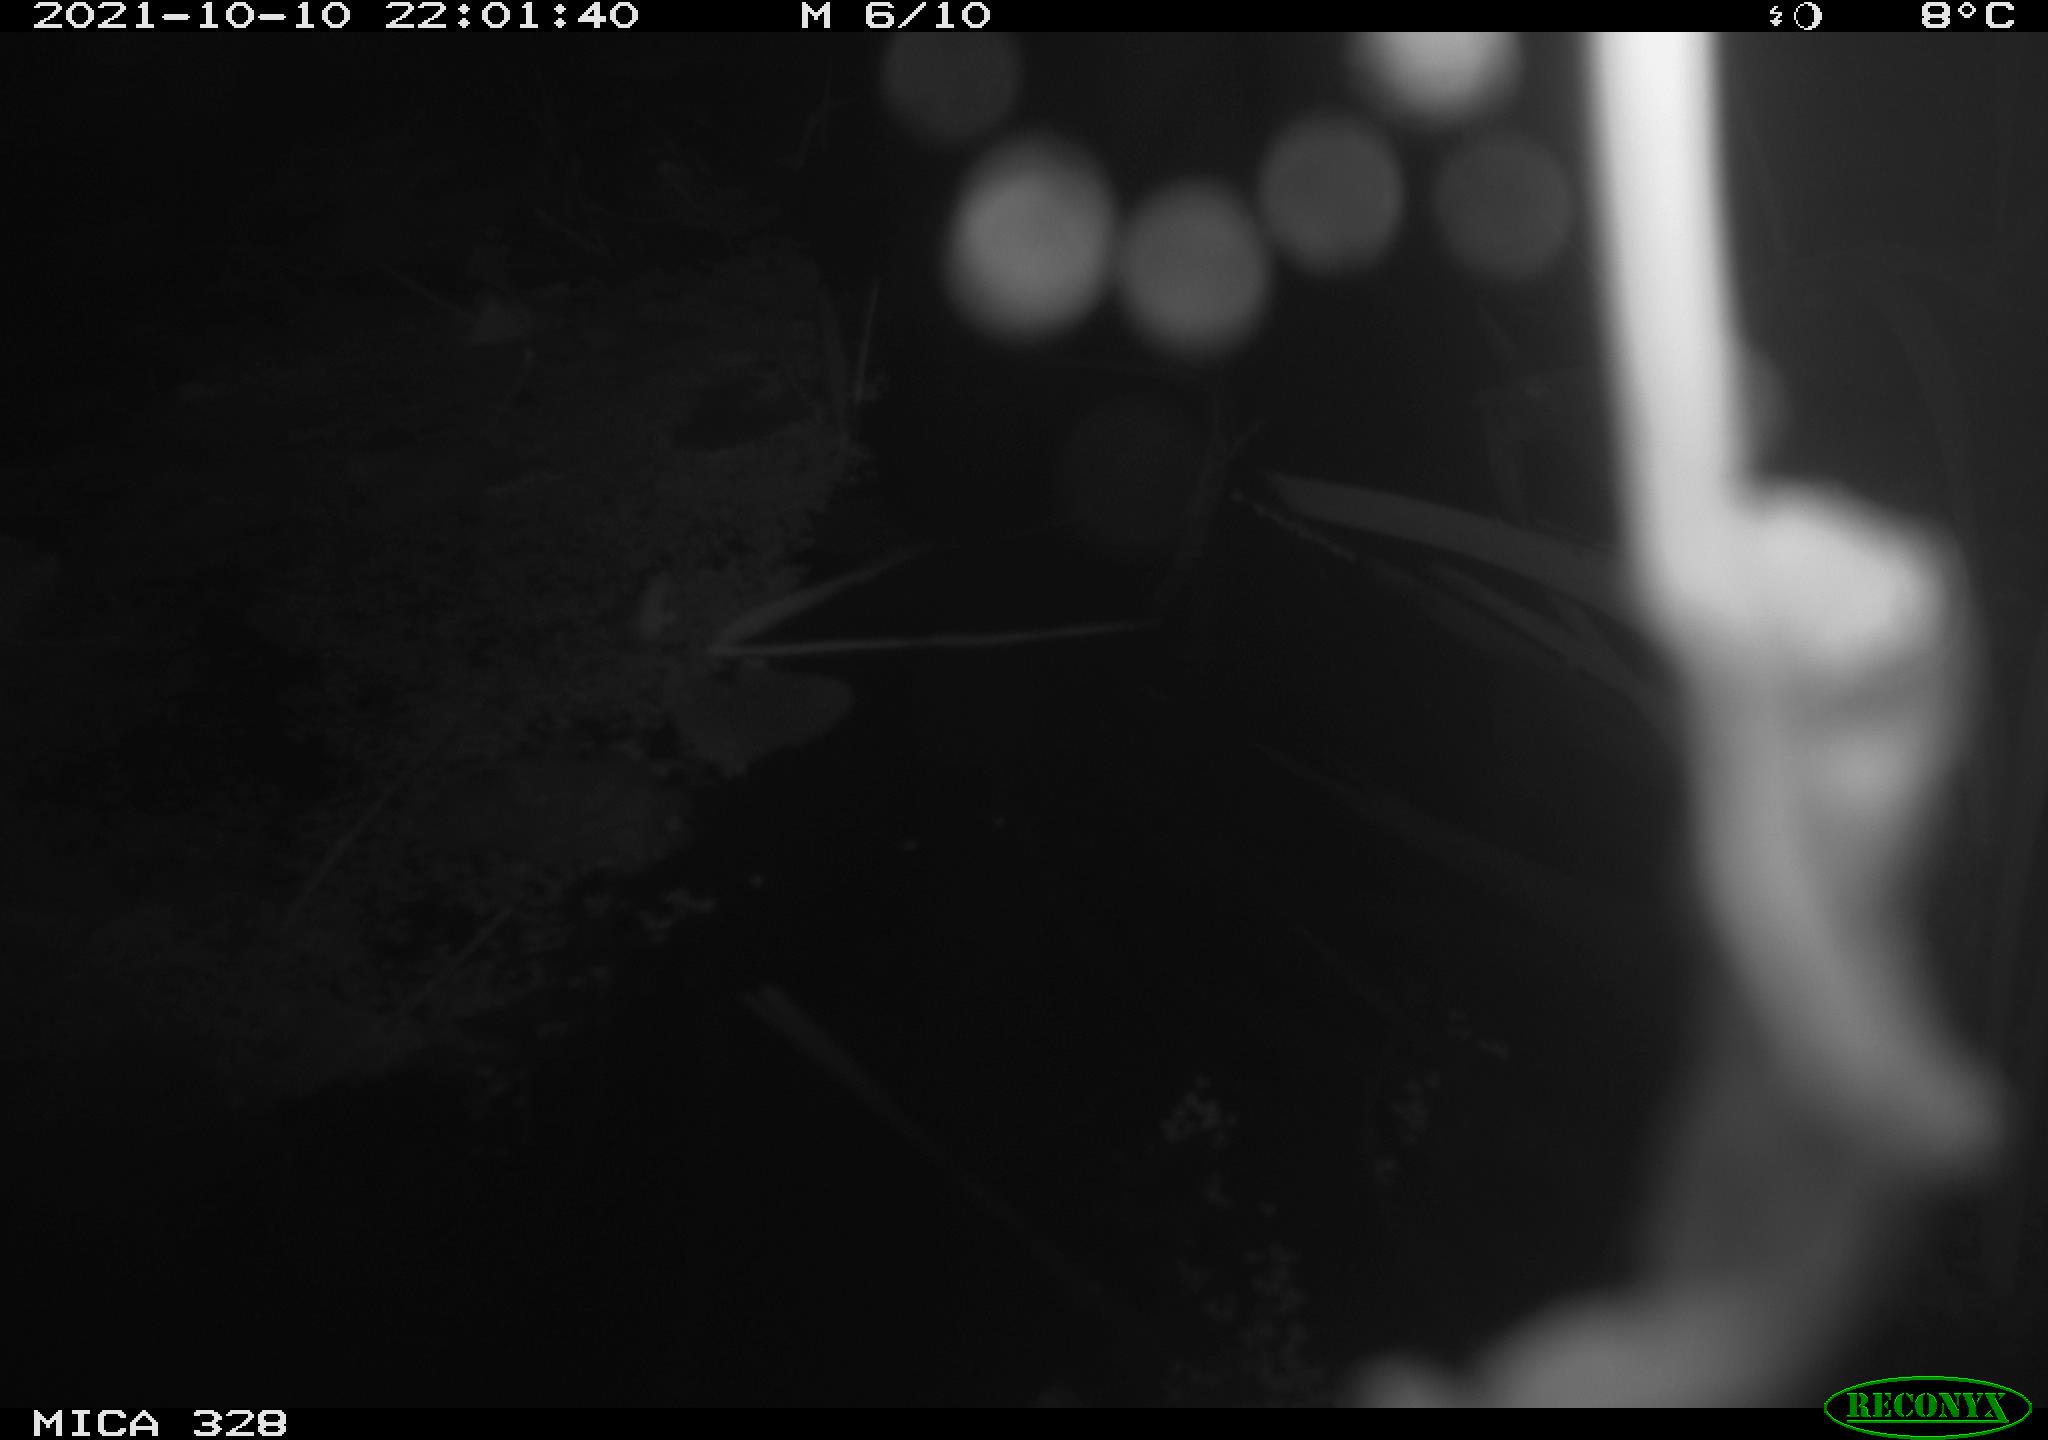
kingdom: Animalia
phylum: Chordata
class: Mammalia
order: Rodentia
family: Cricetidae
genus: Ondatra
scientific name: Ondatra zibethicus
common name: Muskrat
